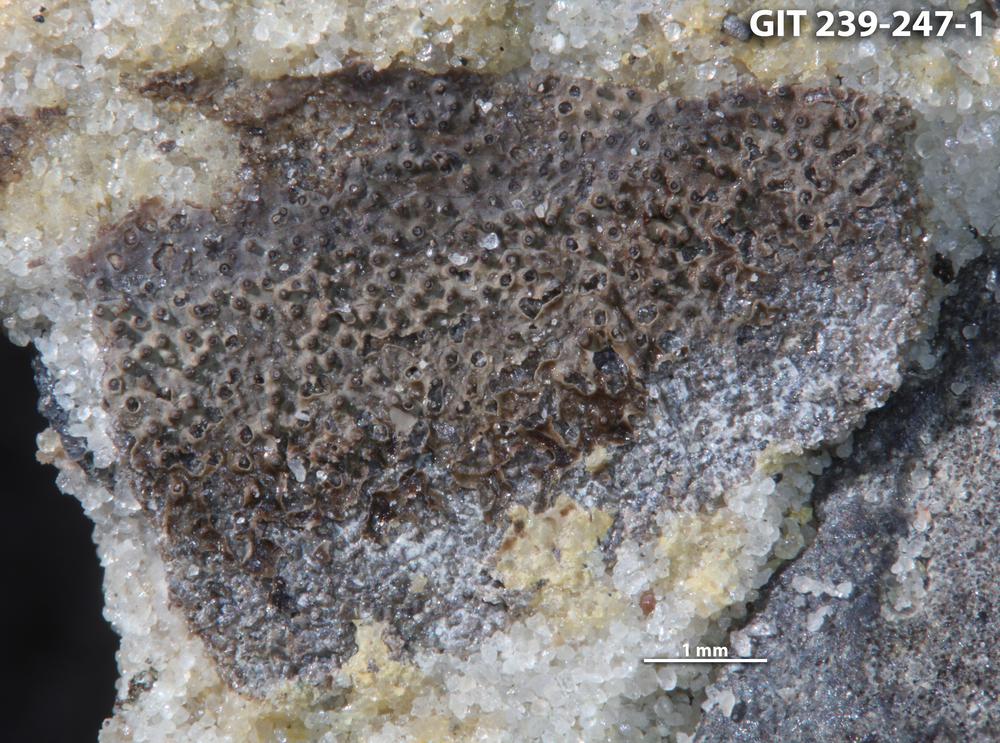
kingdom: Animalia
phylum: Brachiopoda
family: Paterinidae
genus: Mickwitzia
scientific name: Mickwitzia
